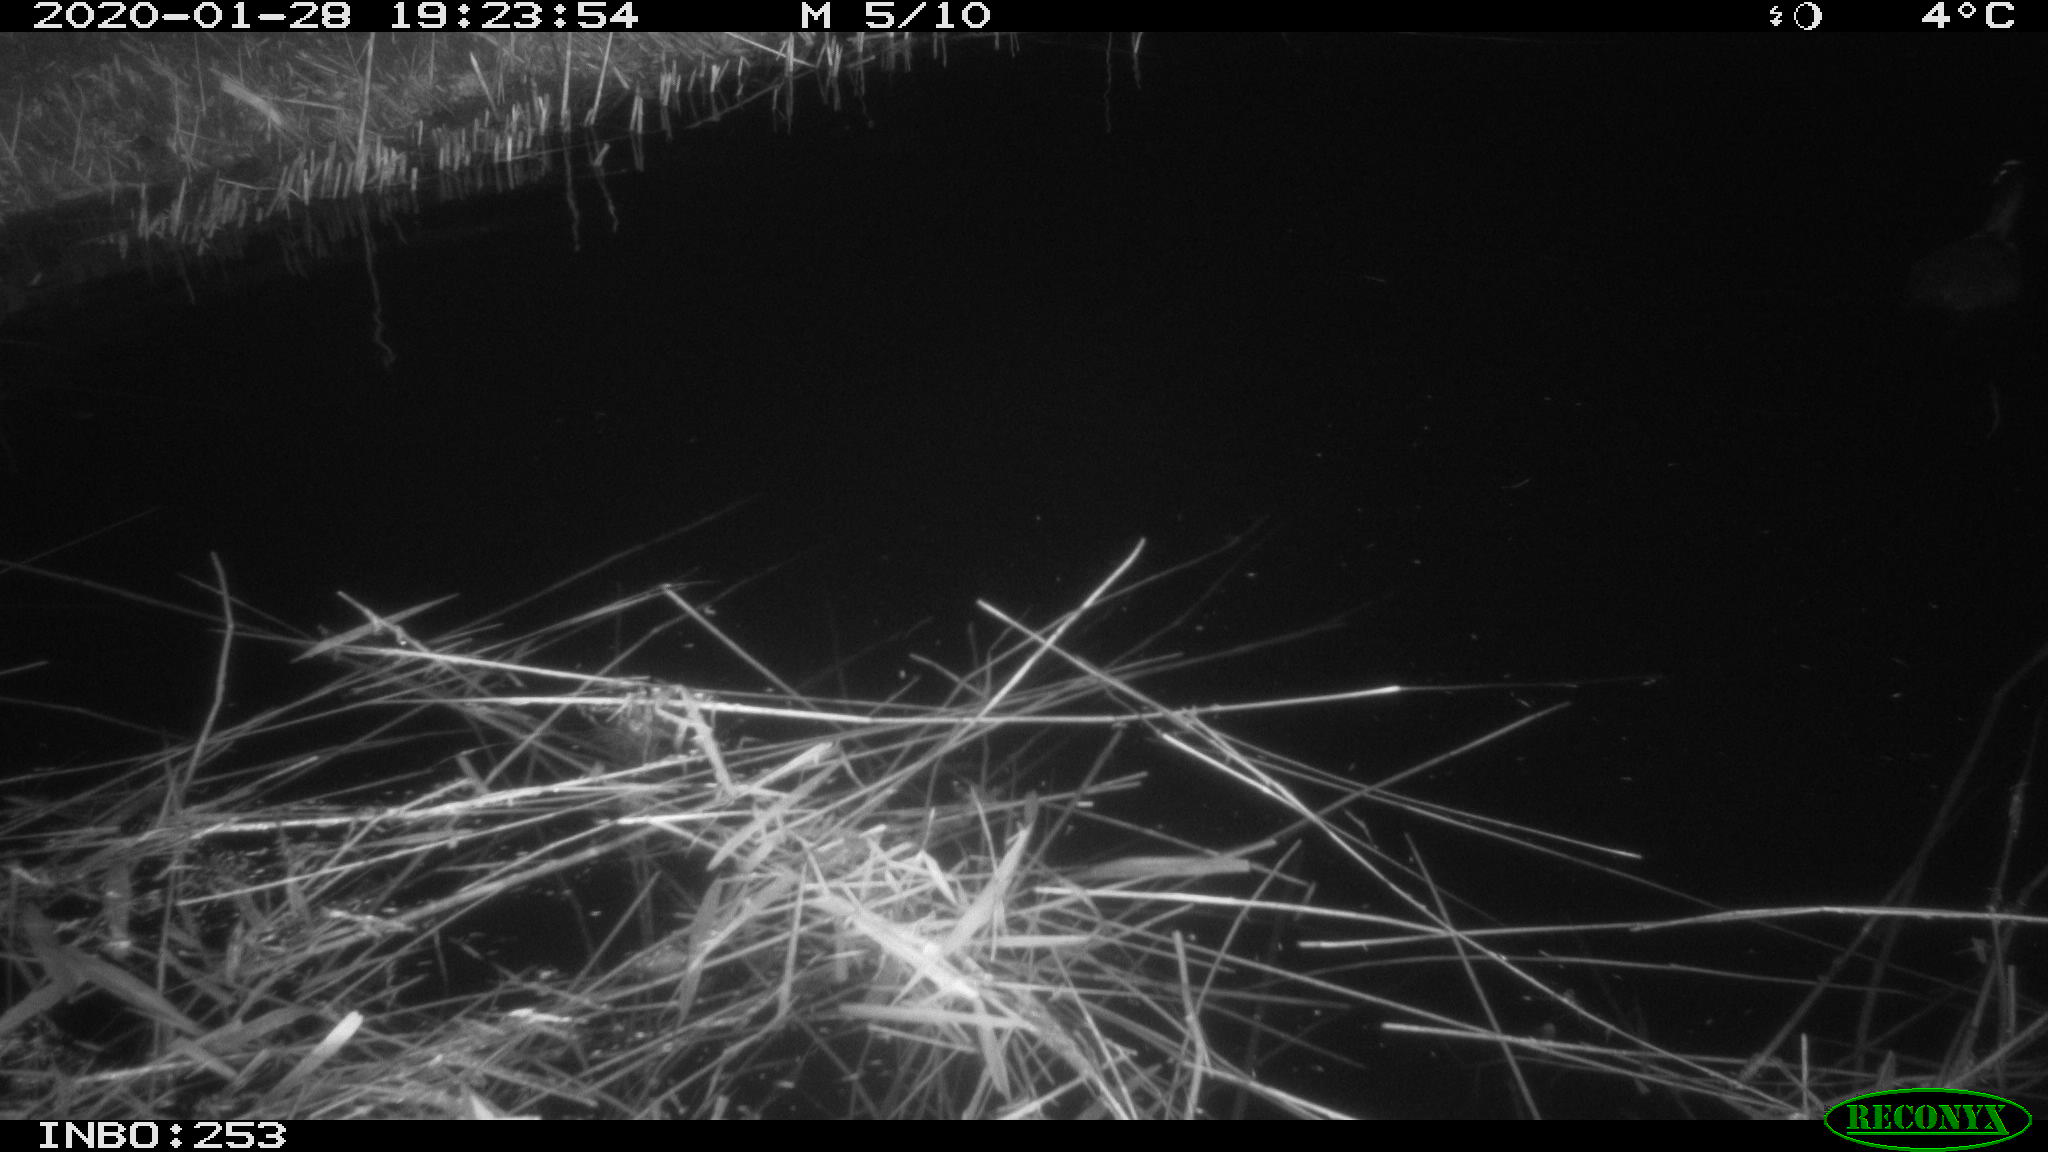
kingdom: Animalia
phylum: Chordata
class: Aves
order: Gruiformes
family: Rallidae
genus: Fulica
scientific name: Fulica atra
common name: Eurasian coot
